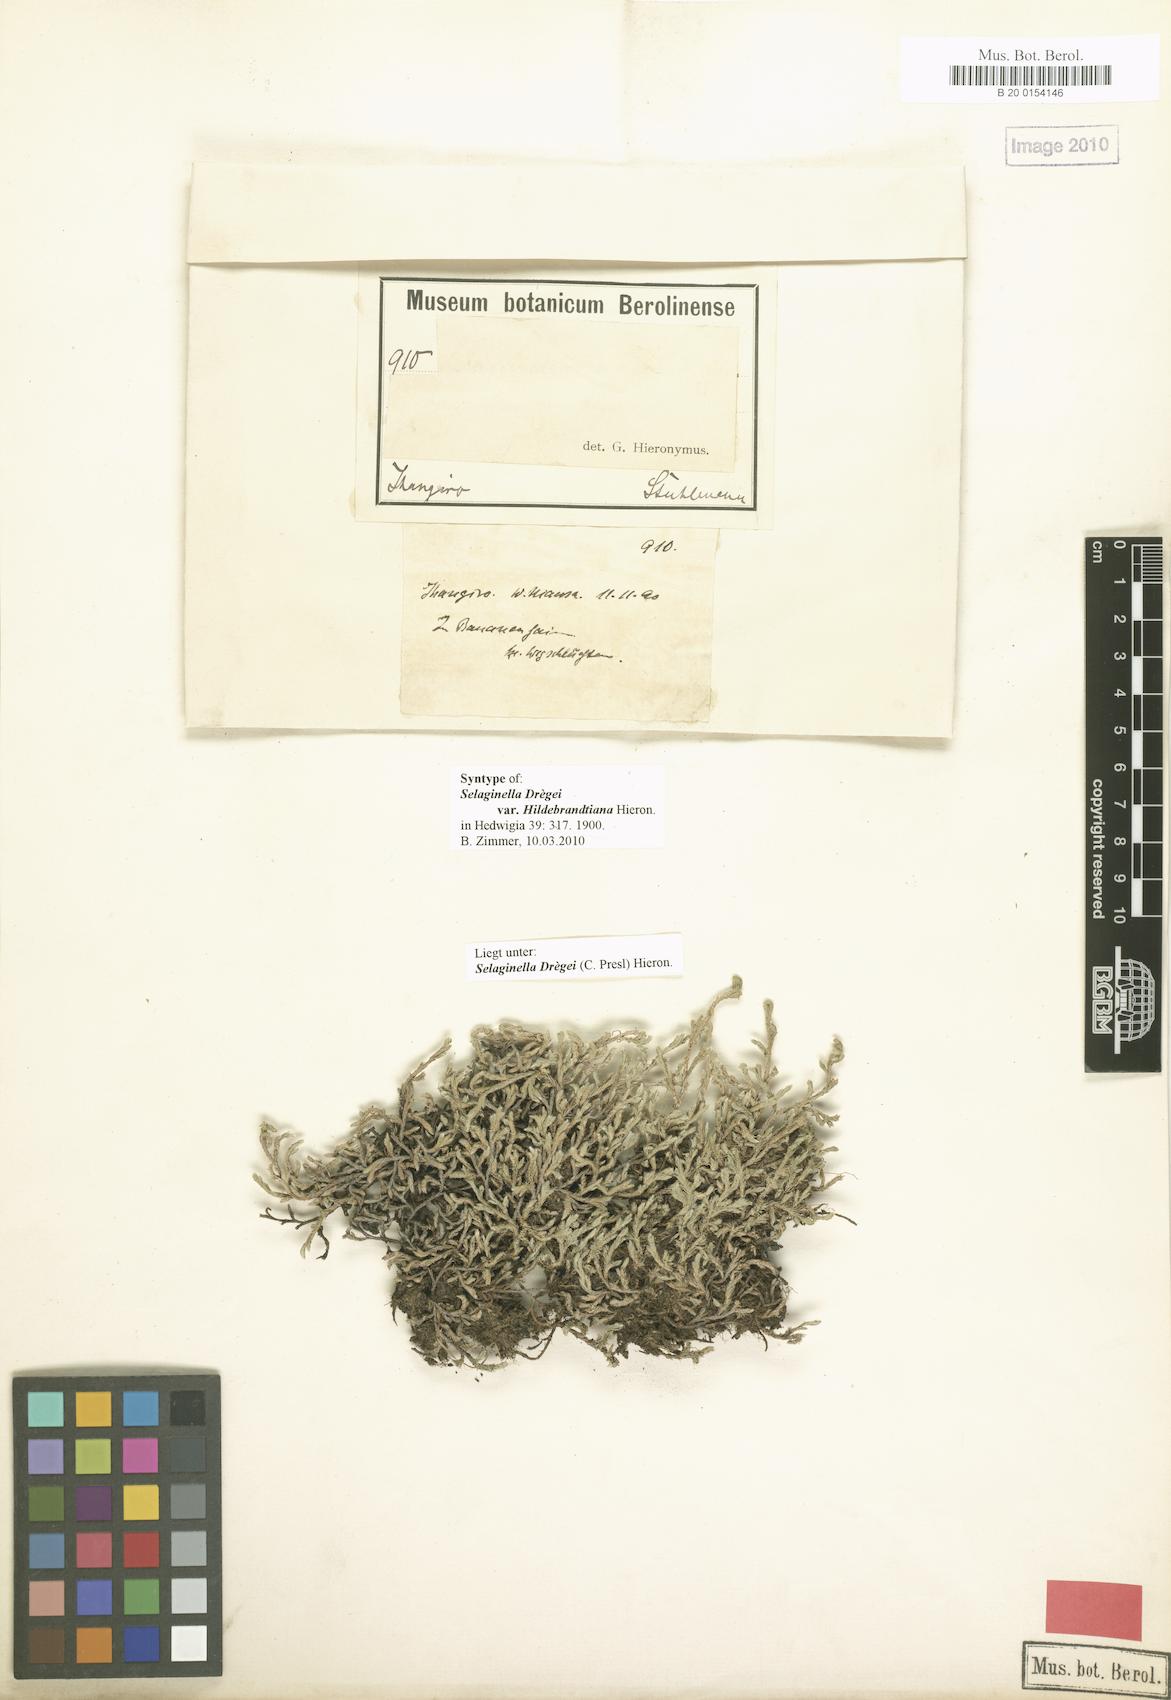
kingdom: Plantae
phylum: Tracheophyta
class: Lycopodiopsida
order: Selaginellales
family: Selaginellaceae
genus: Selaginella
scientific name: Selaginella dregei
